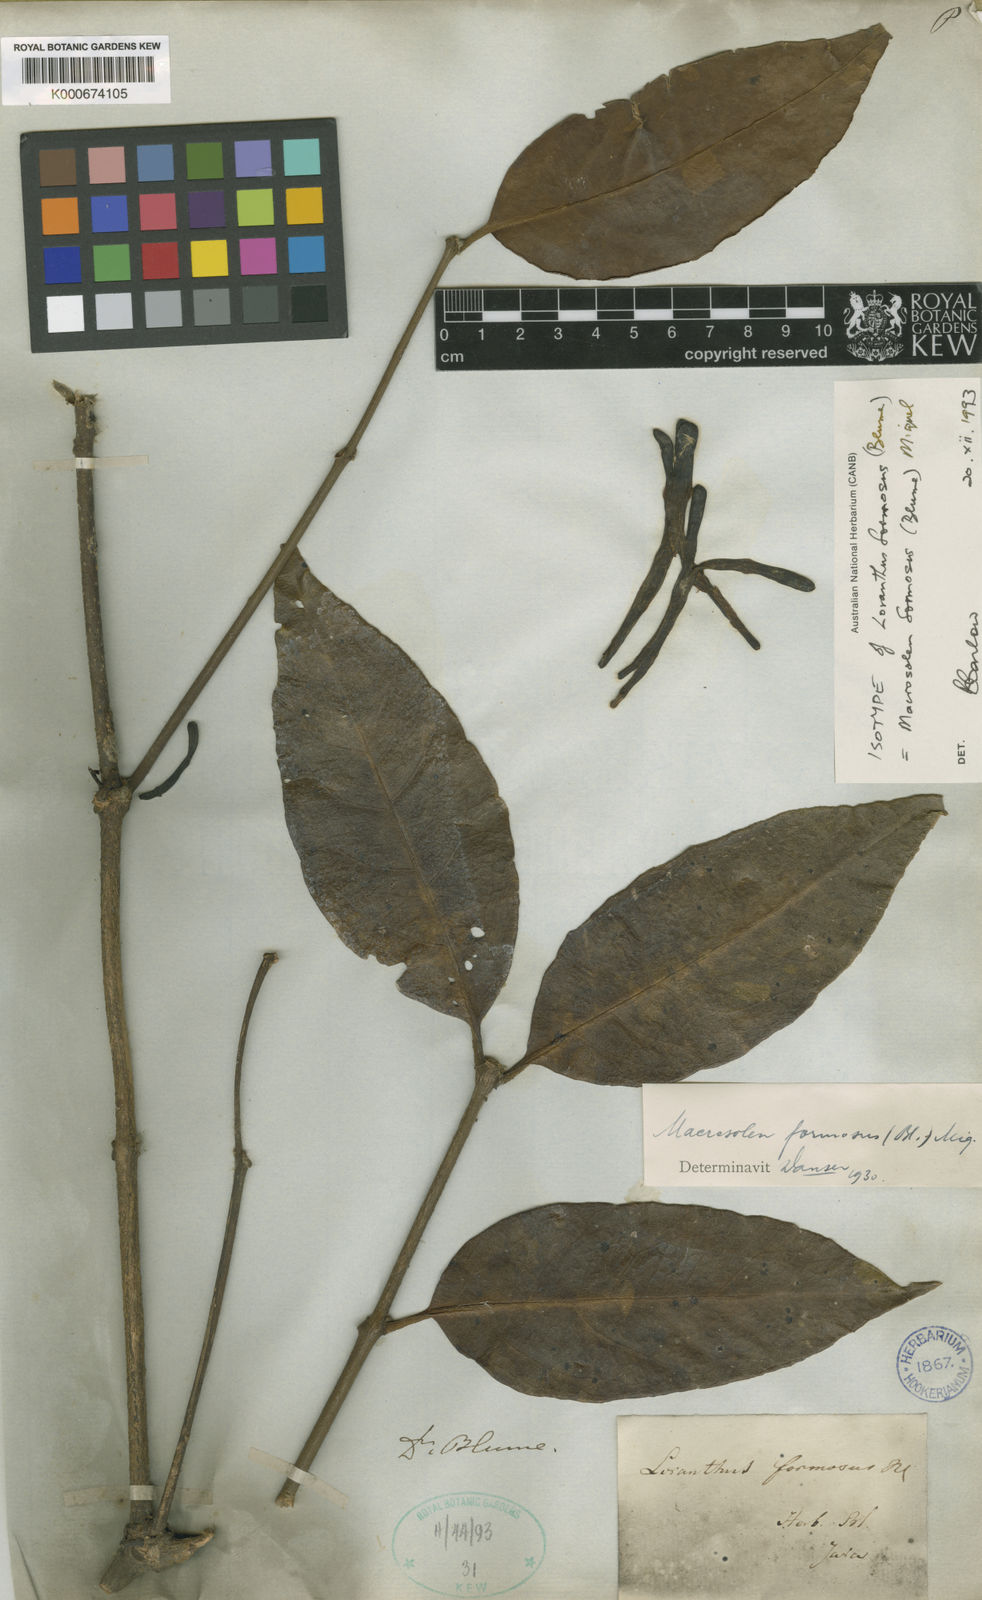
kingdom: Plantae
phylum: Tracheophyta
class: Magnoliopsida
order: Santalales
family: Loranthaceae
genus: Macrosolen
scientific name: Macrosolen formosus
